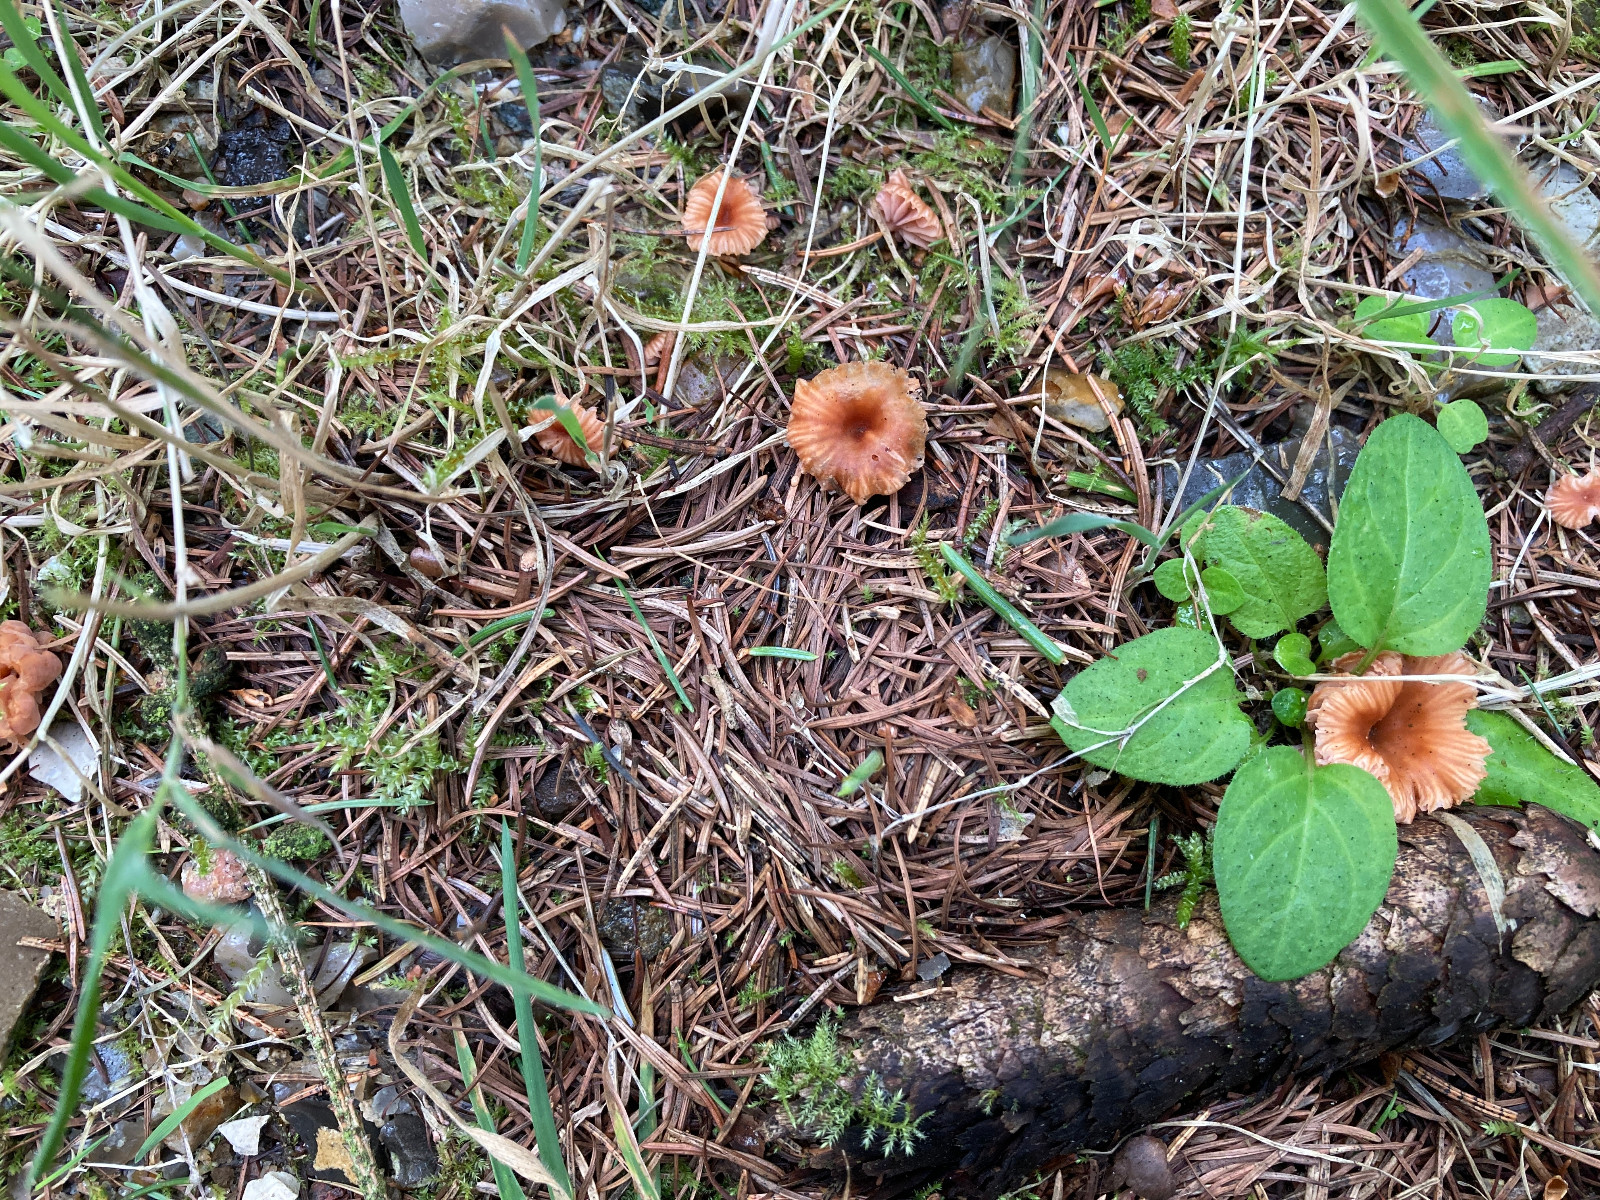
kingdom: Fungi
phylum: Basidiomycota
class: Agaricomycetes
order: Agaricales
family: Hydnangiaceae
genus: Laccaria
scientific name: Laccaria tortilis
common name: krybende ametysthat
